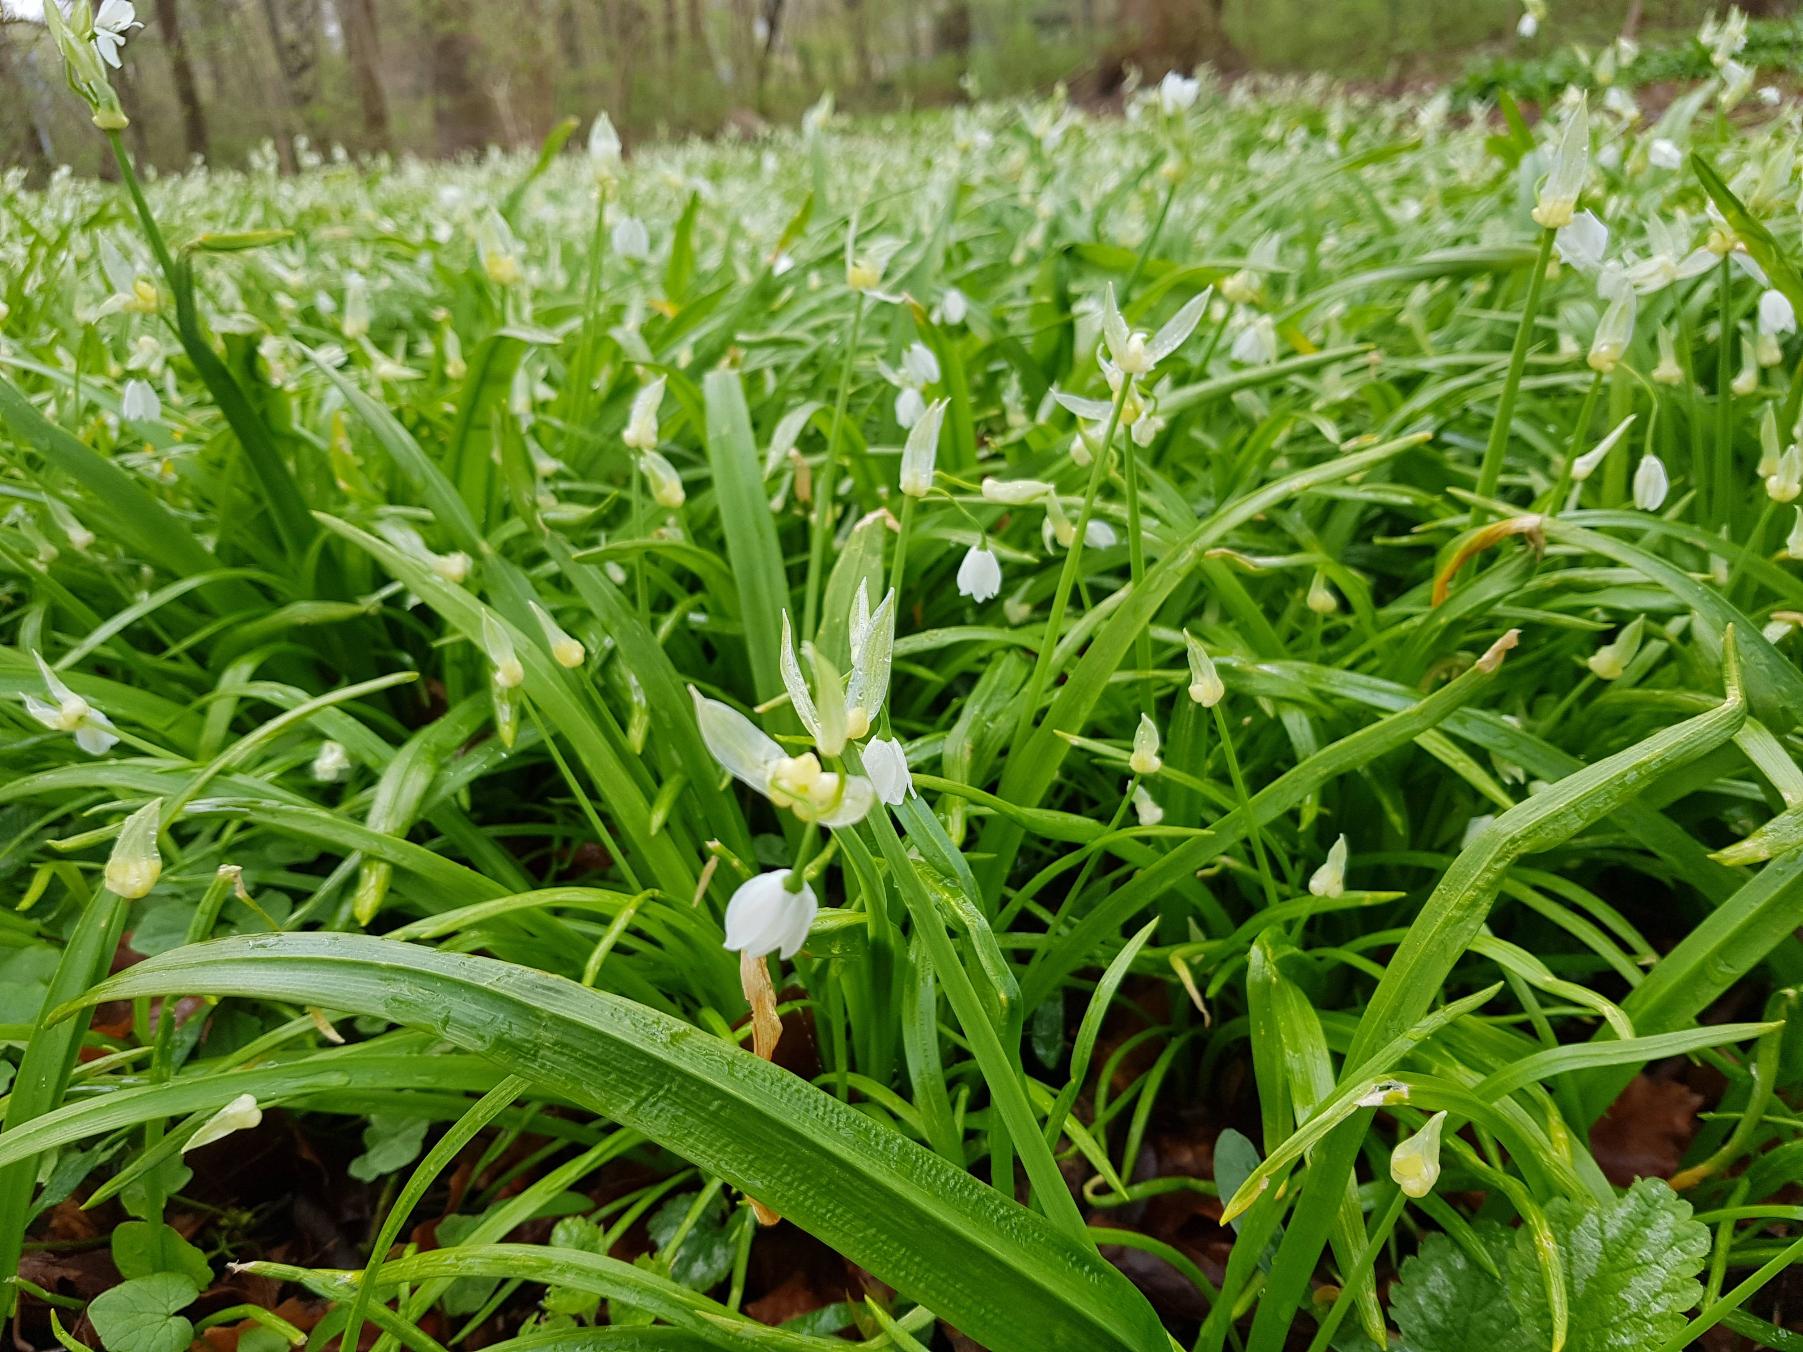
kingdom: Plantae
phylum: Tracheophyta
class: Liliopsida
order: Asparagales
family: Amaryllidaceae
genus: Allium
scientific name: Allium paradoxum
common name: Spøjs løg
